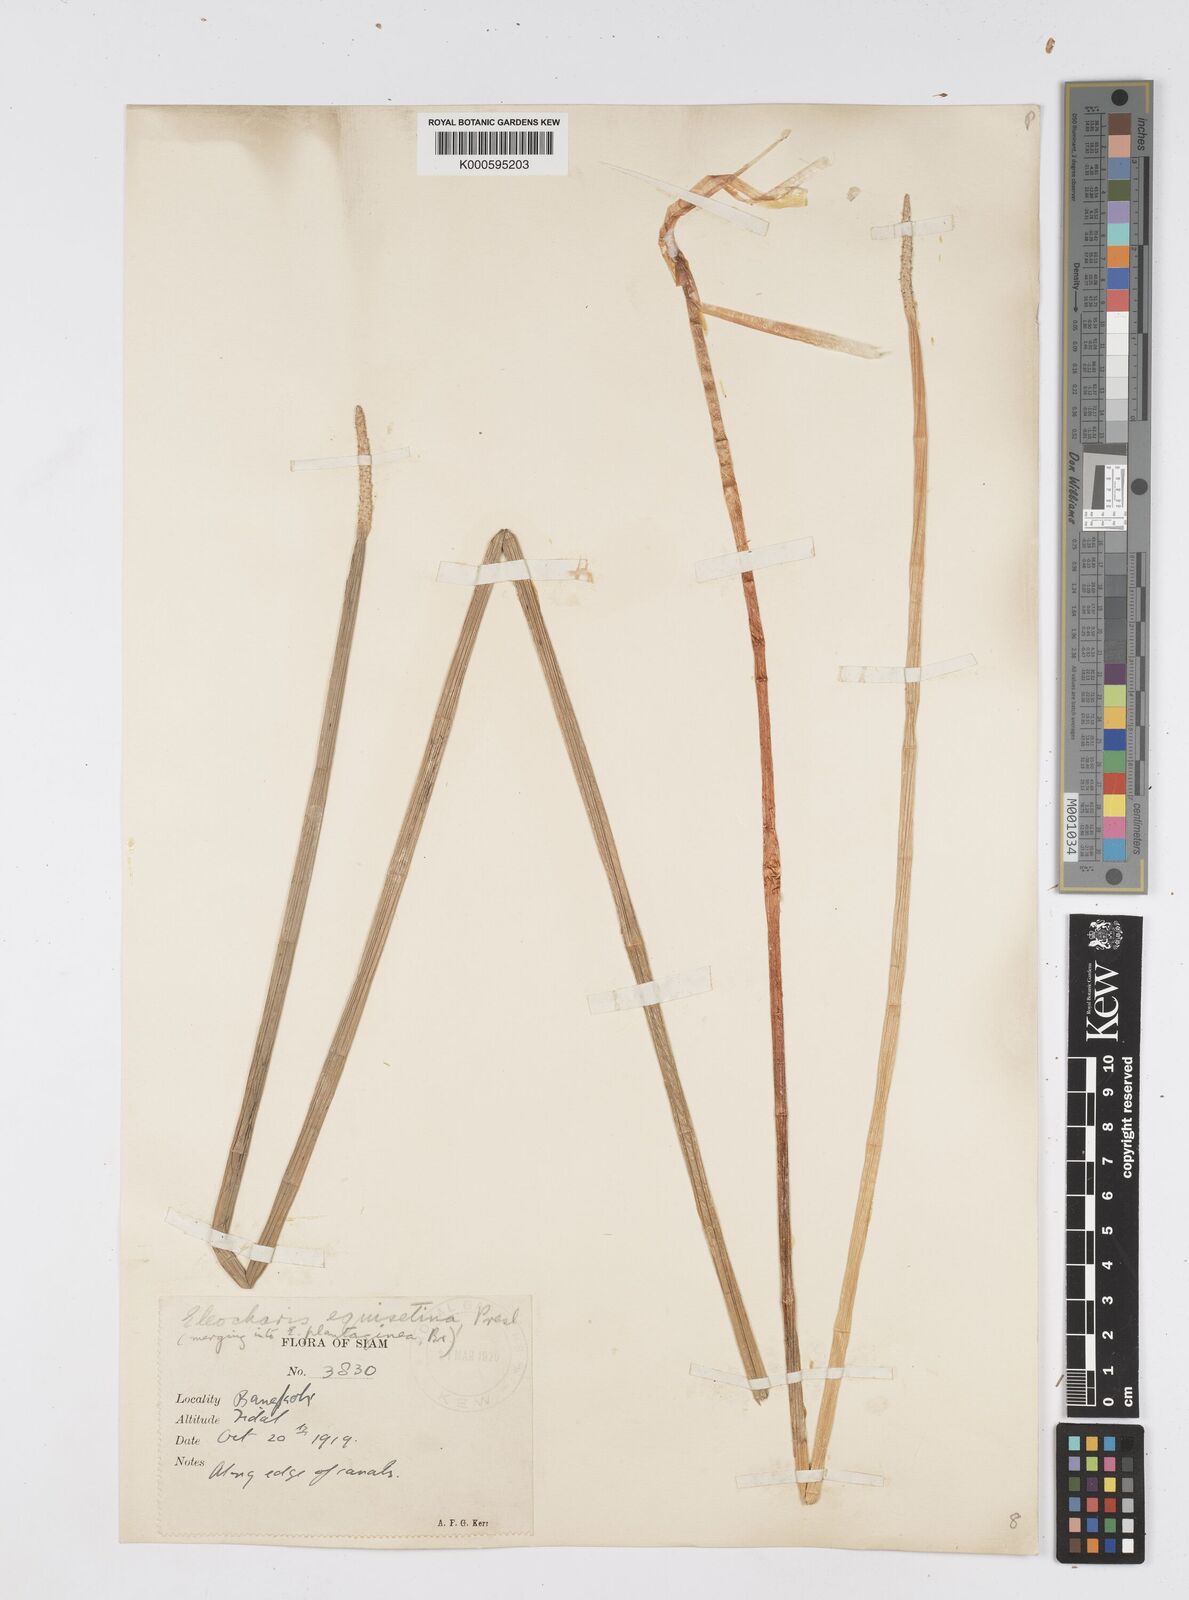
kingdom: Plantae
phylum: Tracheophyta
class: Liliopsida
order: Poales
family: Cyperaceae
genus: Eleocharis
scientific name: Eleocharis dulcis
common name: Chinese water chestnut
